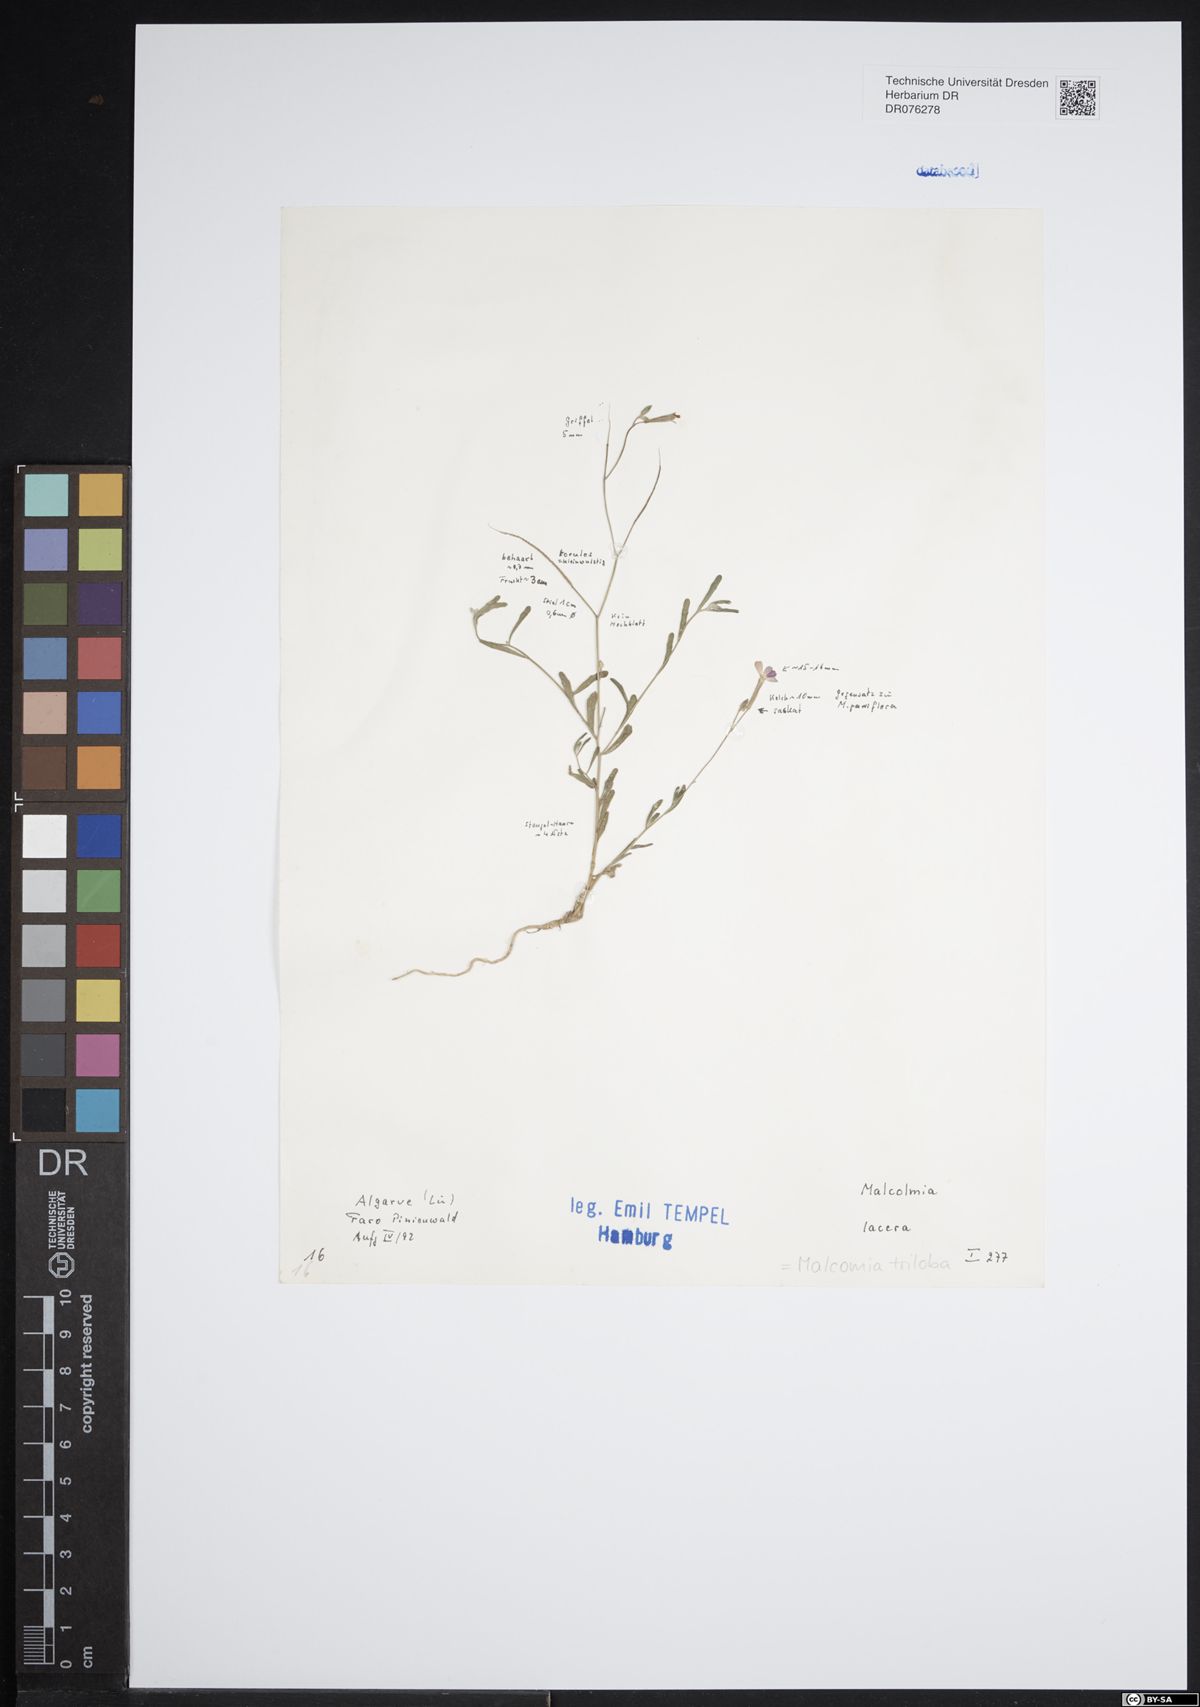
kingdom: Plantae
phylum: Tracheophyta
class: Magnoliopsida
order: Brassicales
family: Brassicaceae
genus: Marcuskochia
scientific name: Marcuskochia triloba
